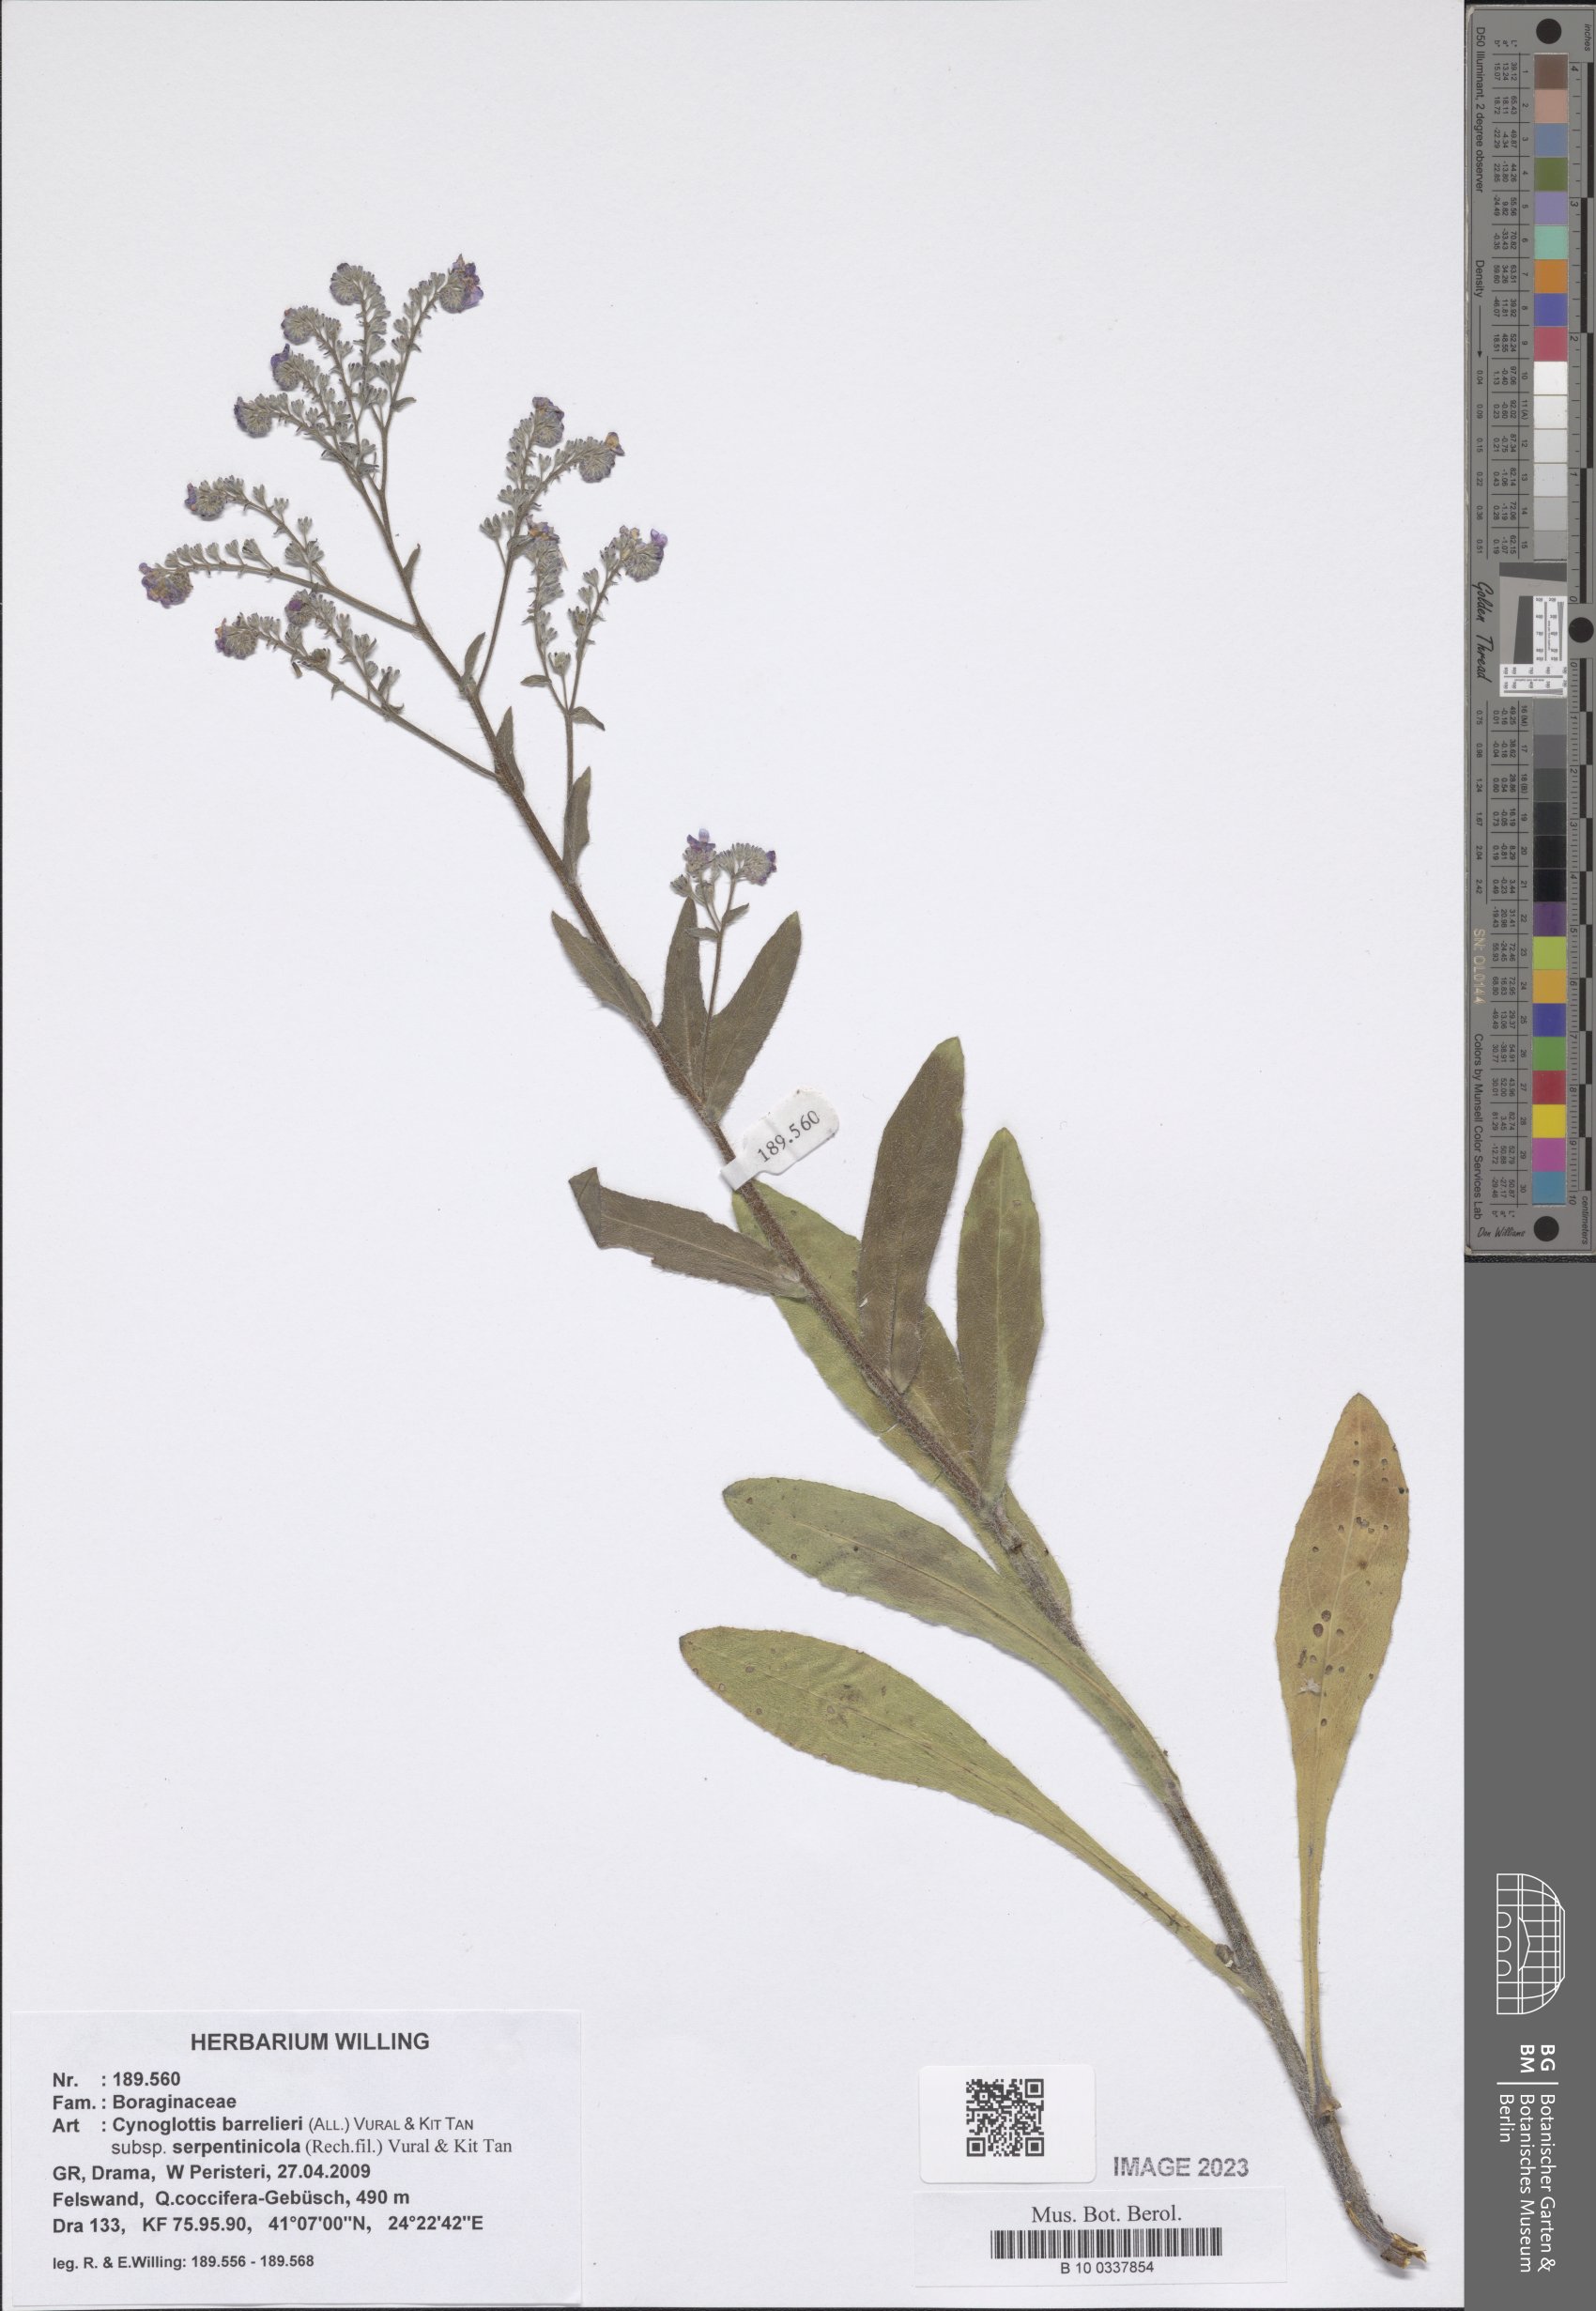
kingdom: Plantae
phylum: Tracheophyta
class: Magnoliopsida
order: Boraginales
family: Boraginaceae
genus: Cynoglottis
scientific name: Cynoglottis barrelieri
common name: False alkanet
